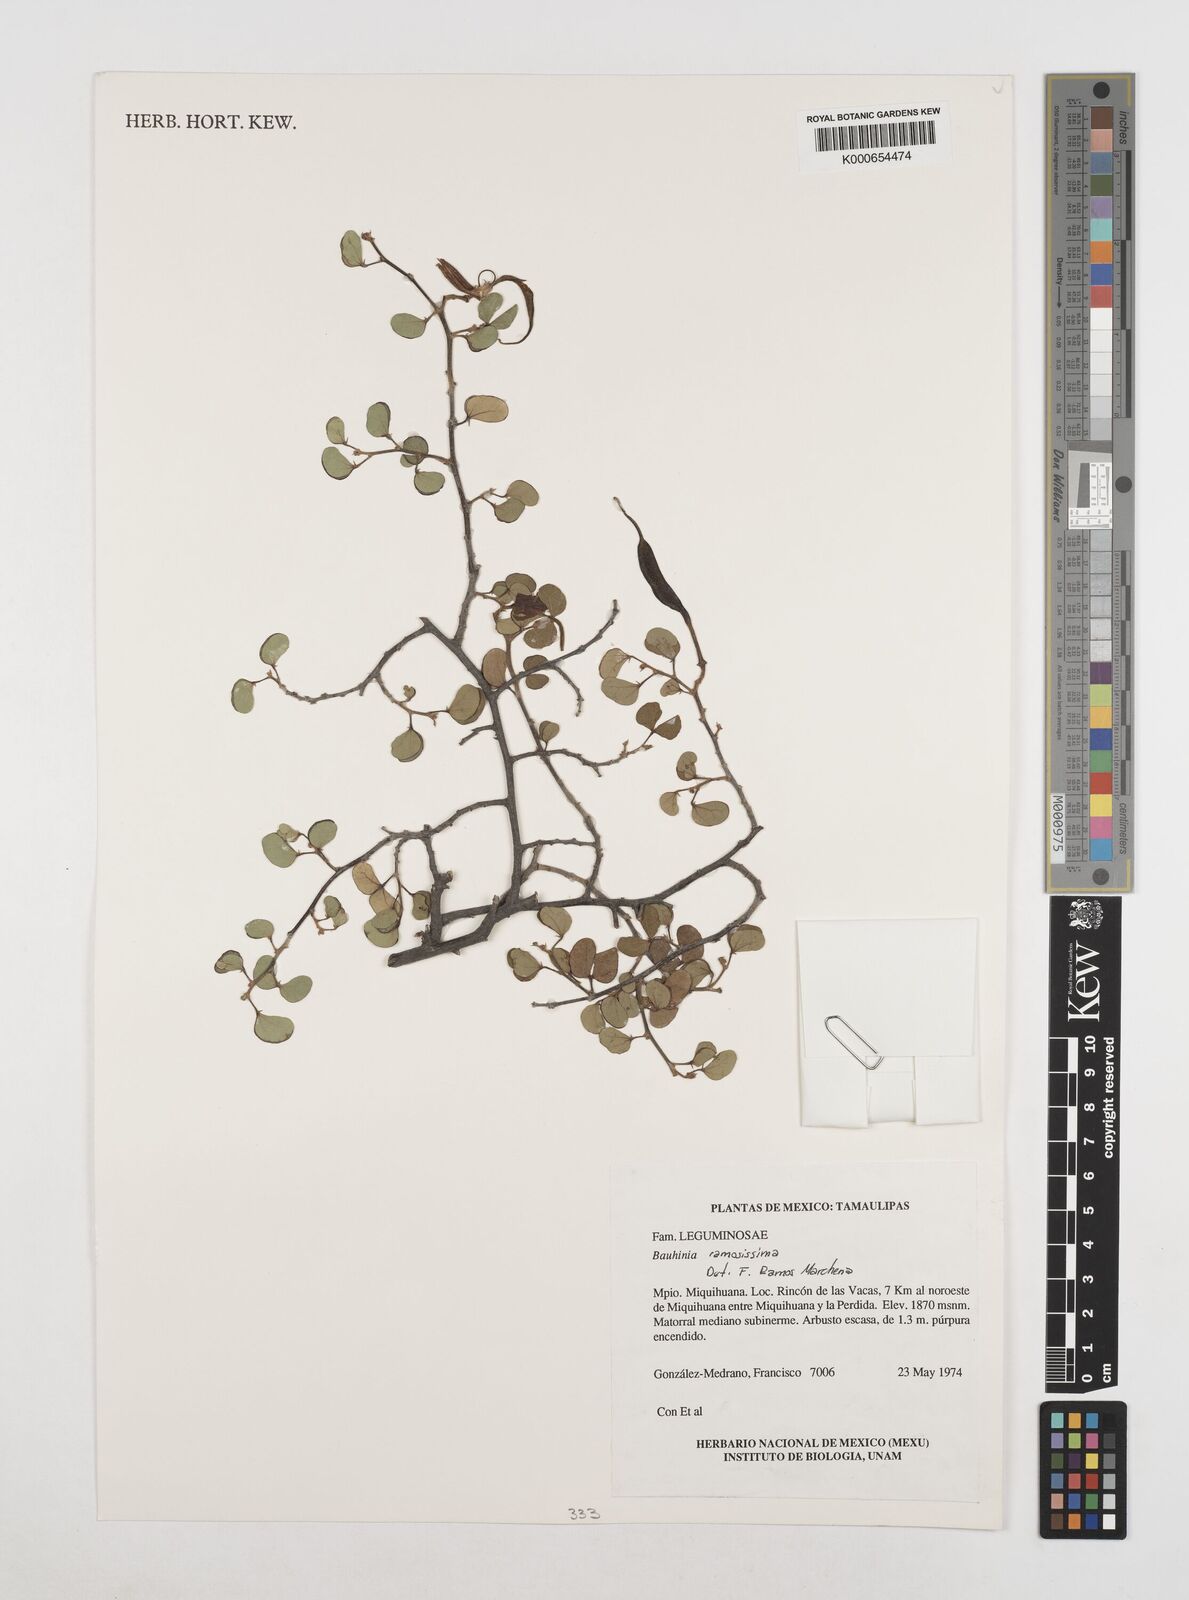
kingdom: Plantae
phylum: Tracheophyta
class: Magnoliopsida
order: Fabales
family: Fabaceae
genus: Bauhinia
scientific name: Bauhinia
